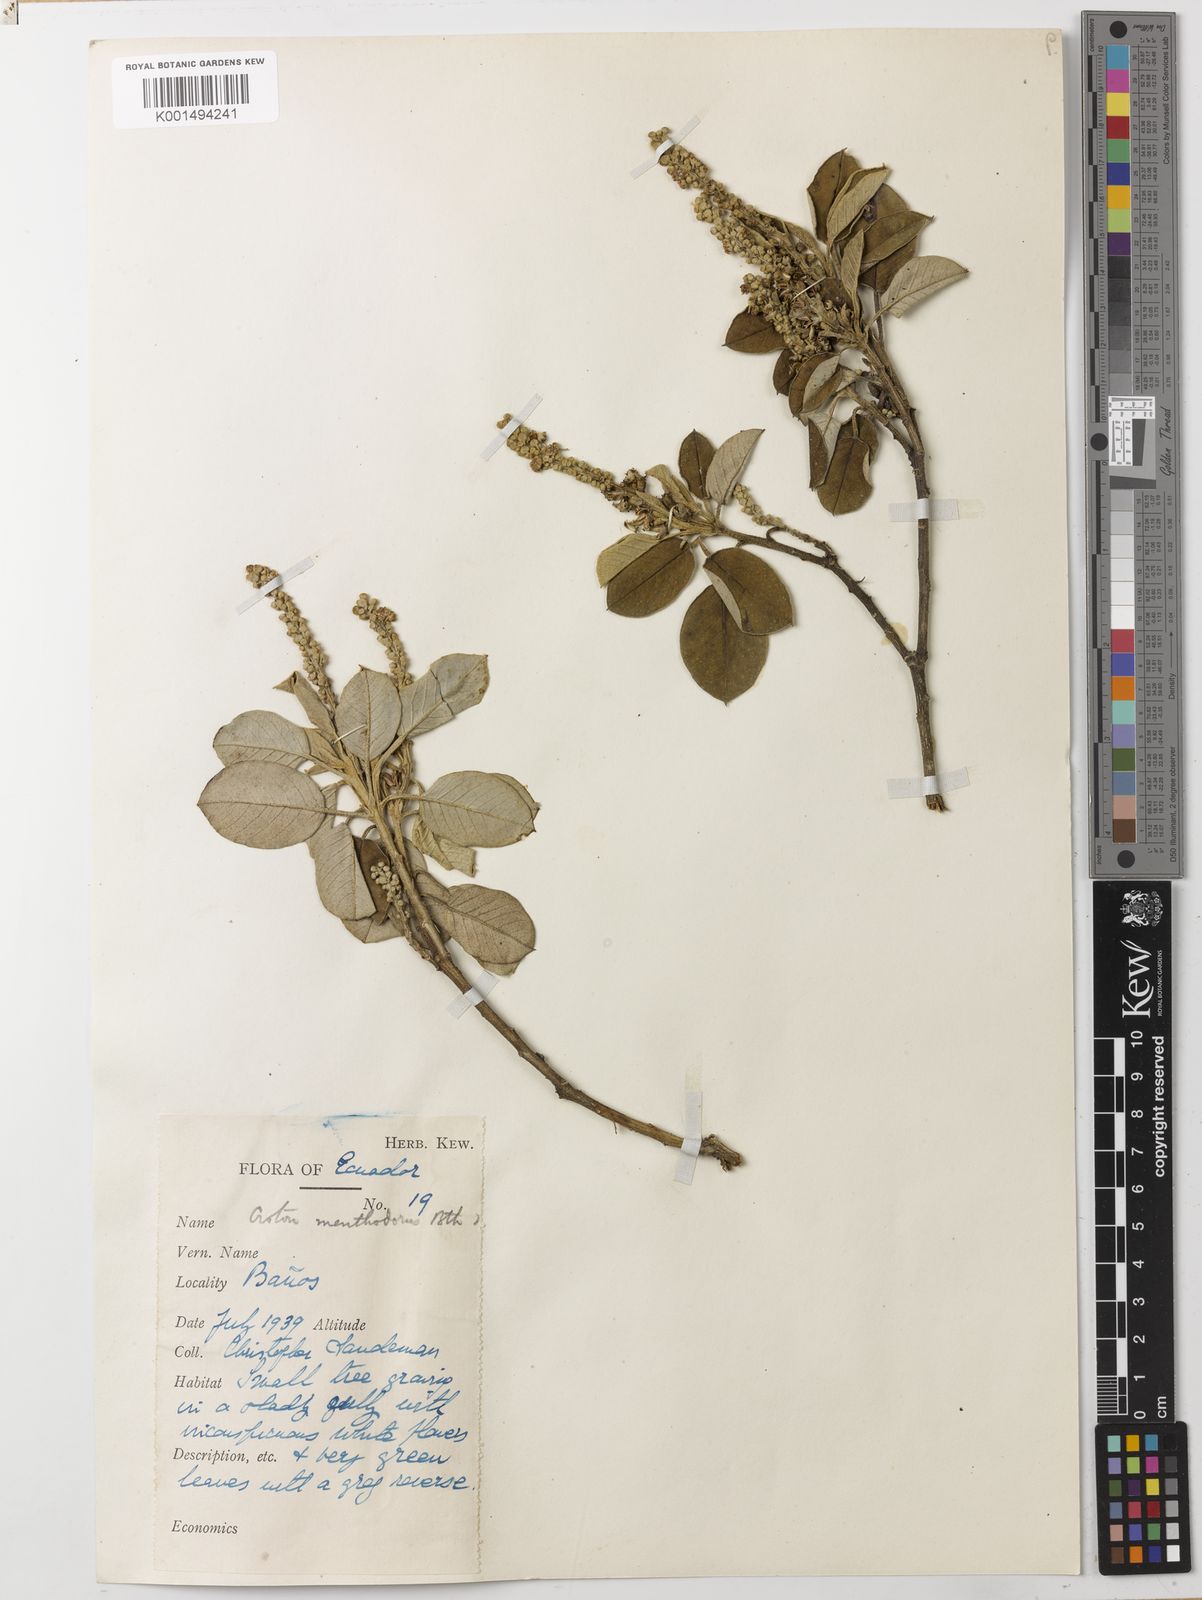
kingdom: Plantae
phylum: Tracheophyta
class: Magnoliopsida
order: Malpighiales
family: Euphorbiaceae
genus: Croton
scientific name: Croton menthodorus
